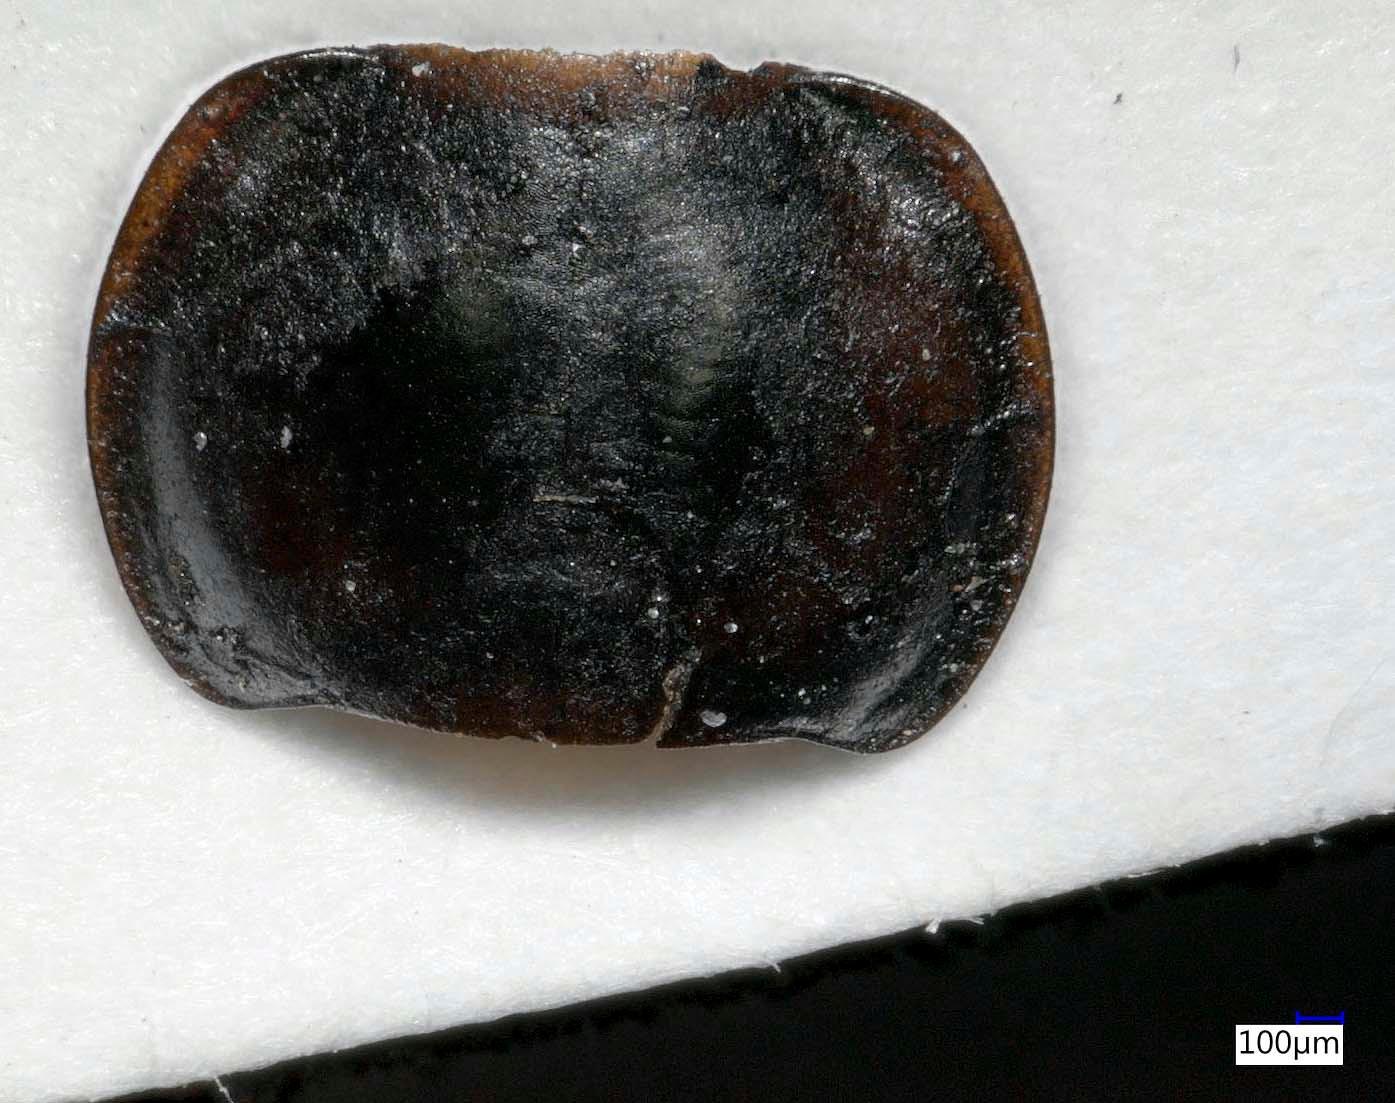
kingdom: Animalia
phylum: Arthropoda
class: Insecta
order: Coleoptera
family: Carabidae
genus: Tanystoma
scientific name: Tanystoma maculicolle
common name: Tule beetle
